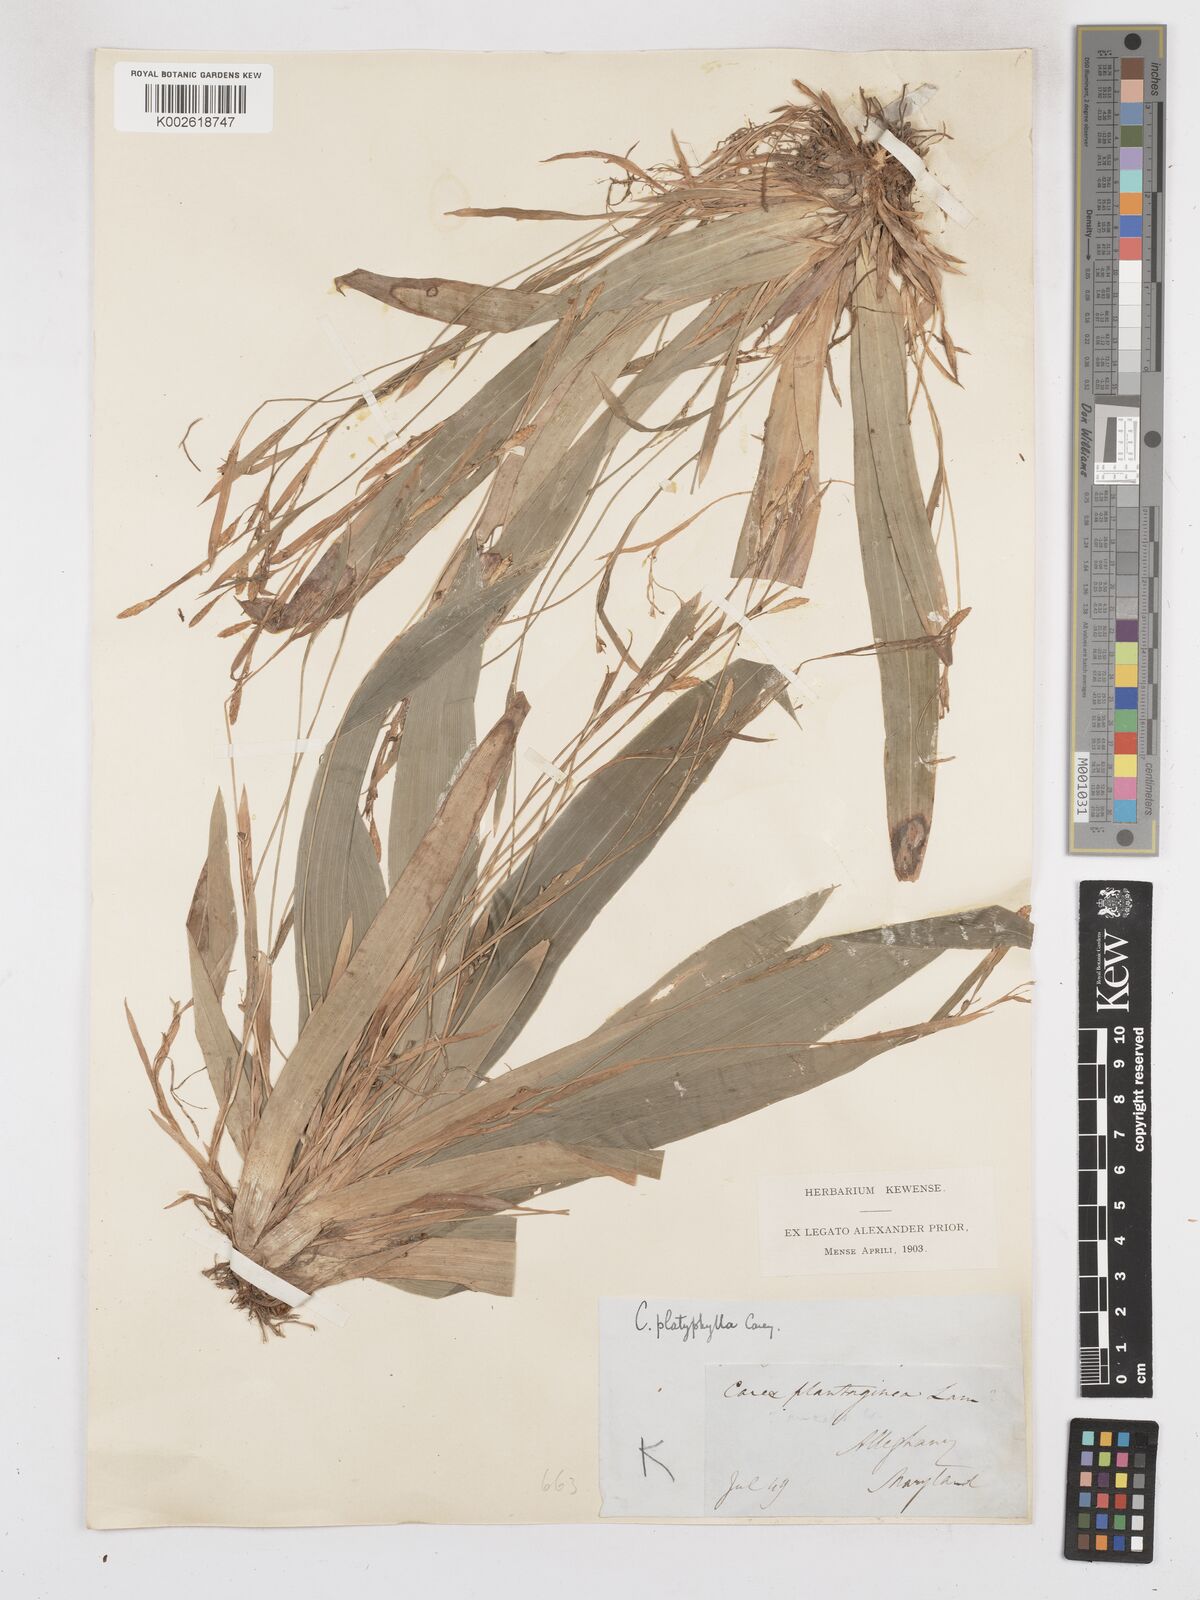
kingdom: Plantae
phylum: Tracheophyta
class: Liliopsida
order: Poales
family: Cyperaceae
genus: Carex
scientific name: Carex platyphylla
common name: Broad-leaved sedge
